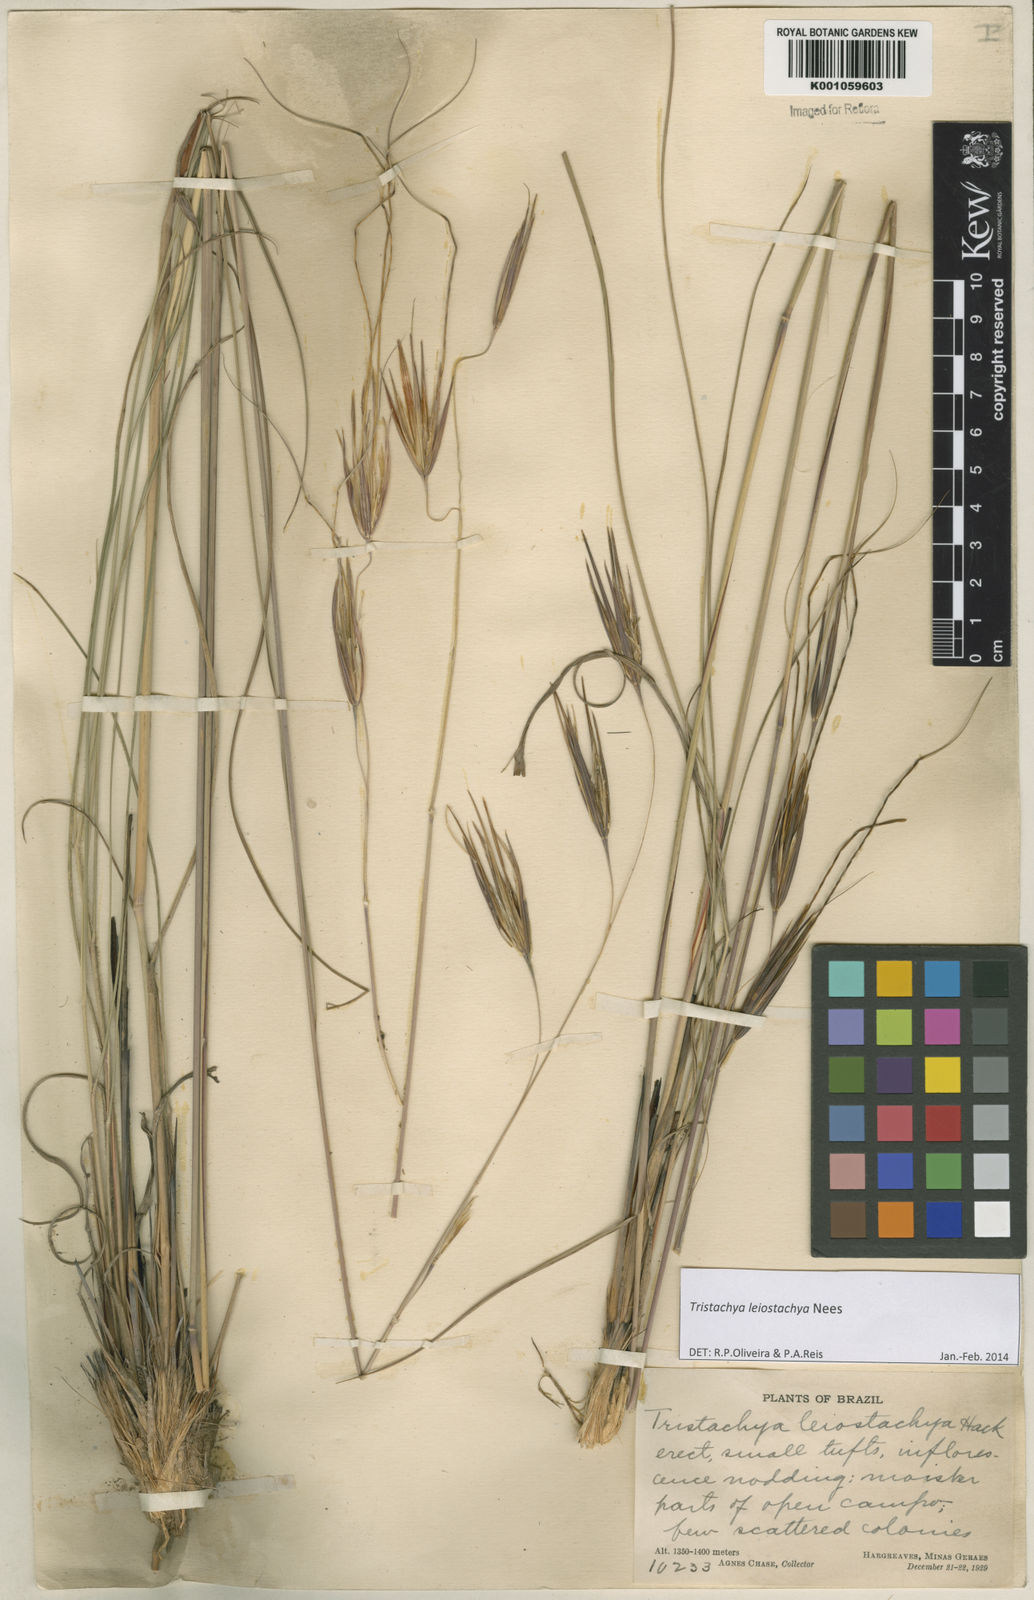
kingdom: Plantae
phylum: Tracheophyta
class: Liliopsida
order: Poales
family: Poaceae
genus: Tristachya
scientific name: Tristachya leiostachya
